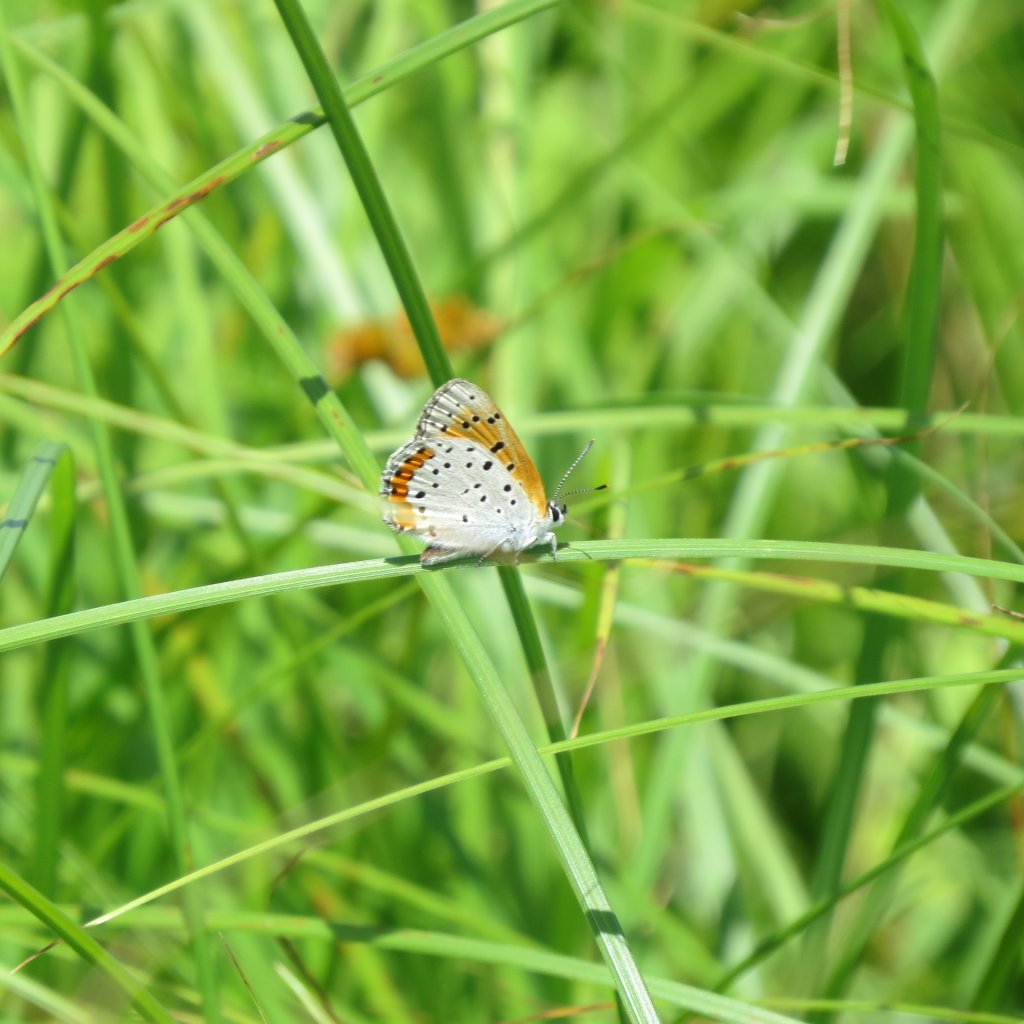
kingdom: Animalia
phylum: Arthropoda
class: Insecta
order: Lepidoptera
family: Sesiidae
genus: Sesia
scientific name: Sesia Lycaena hyllus
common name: Bronze Copper
